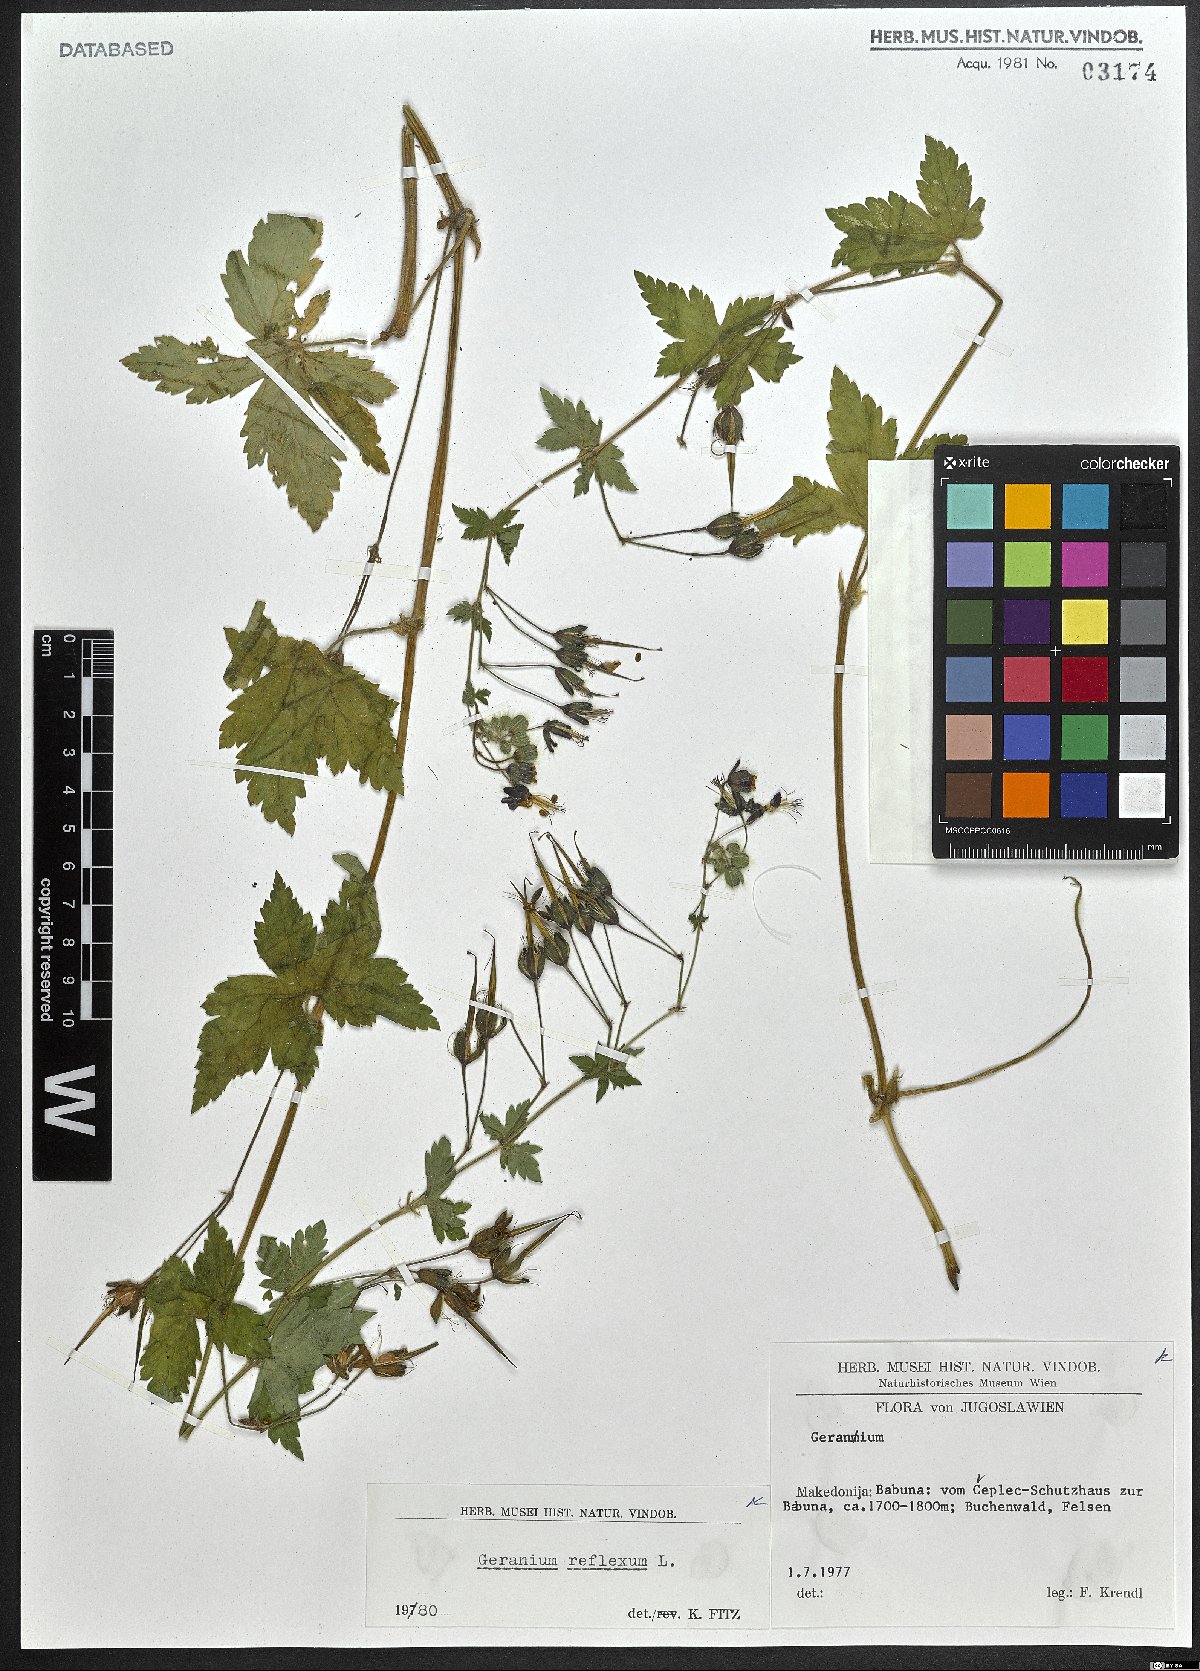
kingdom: Plantae
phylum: Tracheophyta
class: Magnoliopsida
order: Geraniales
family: Geraniaceae
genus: Geranium
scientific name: Geranium reflexum
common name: Reflexed crane's-bill
